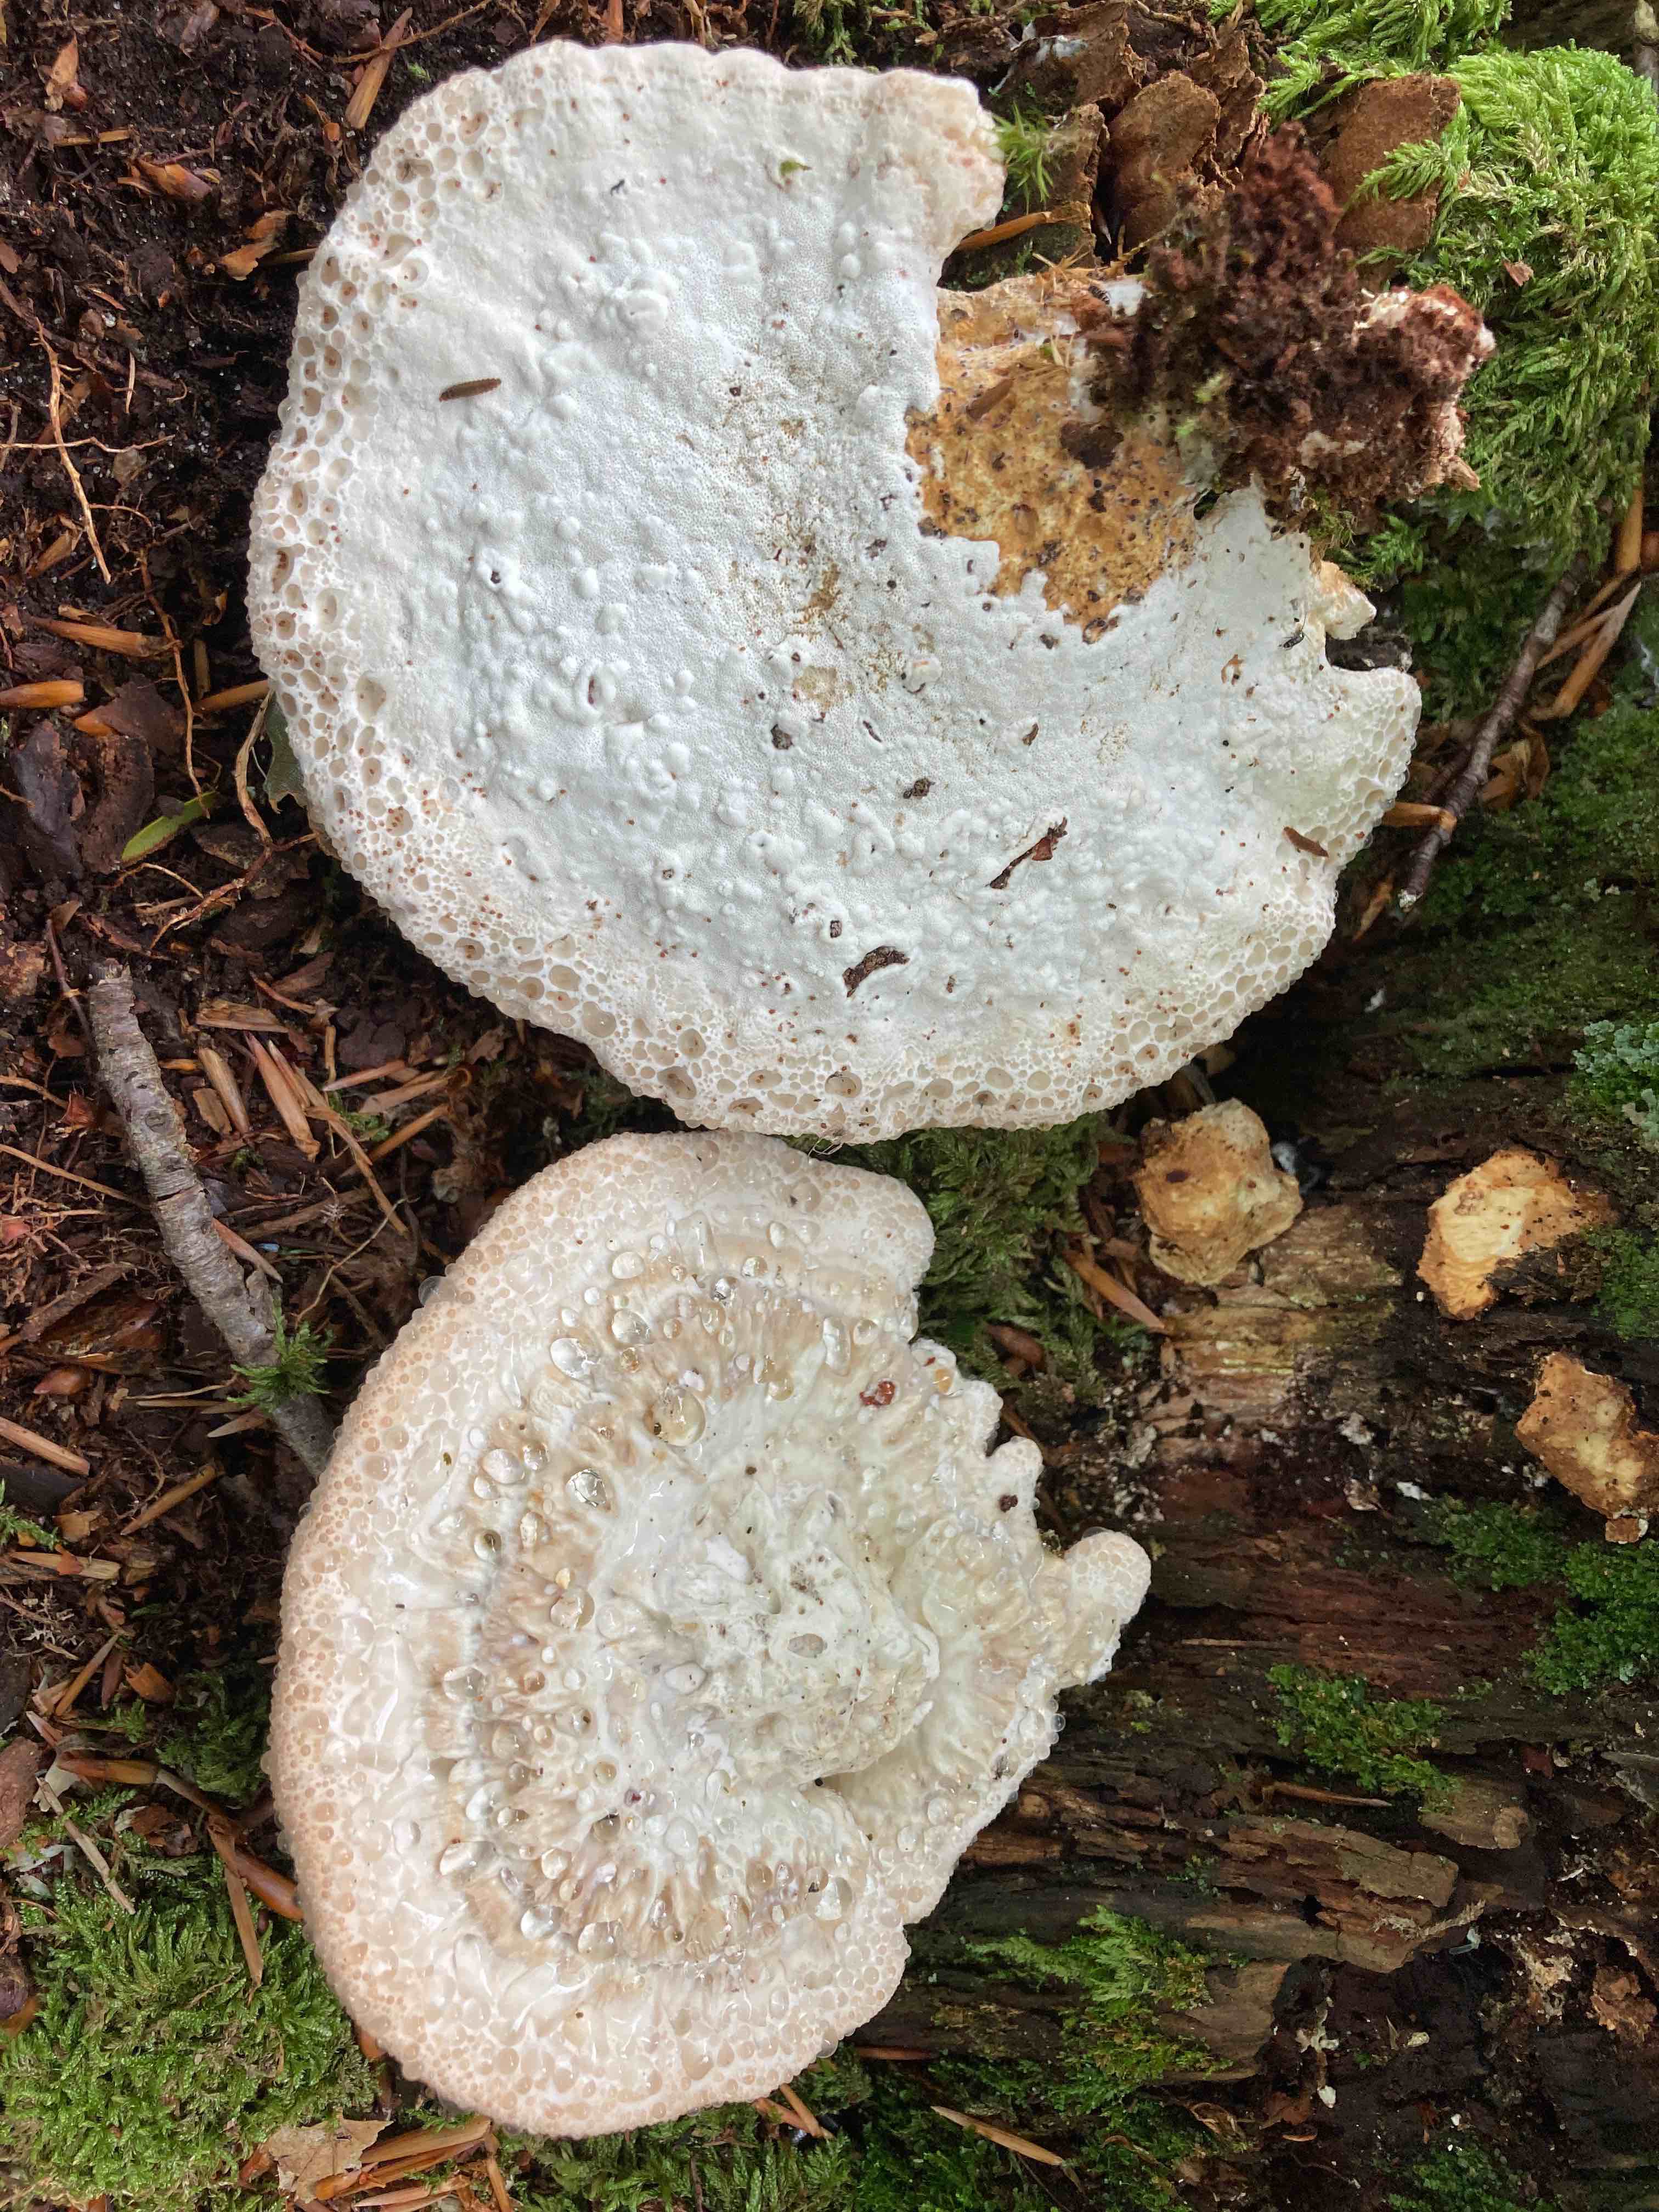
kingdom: Fungi
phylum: Basidiomycota
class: Agaricomycetes
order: Polyporales
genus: Calcipostia
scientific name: Calcipostia guttulata
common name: dråbe-kødporesvamp
